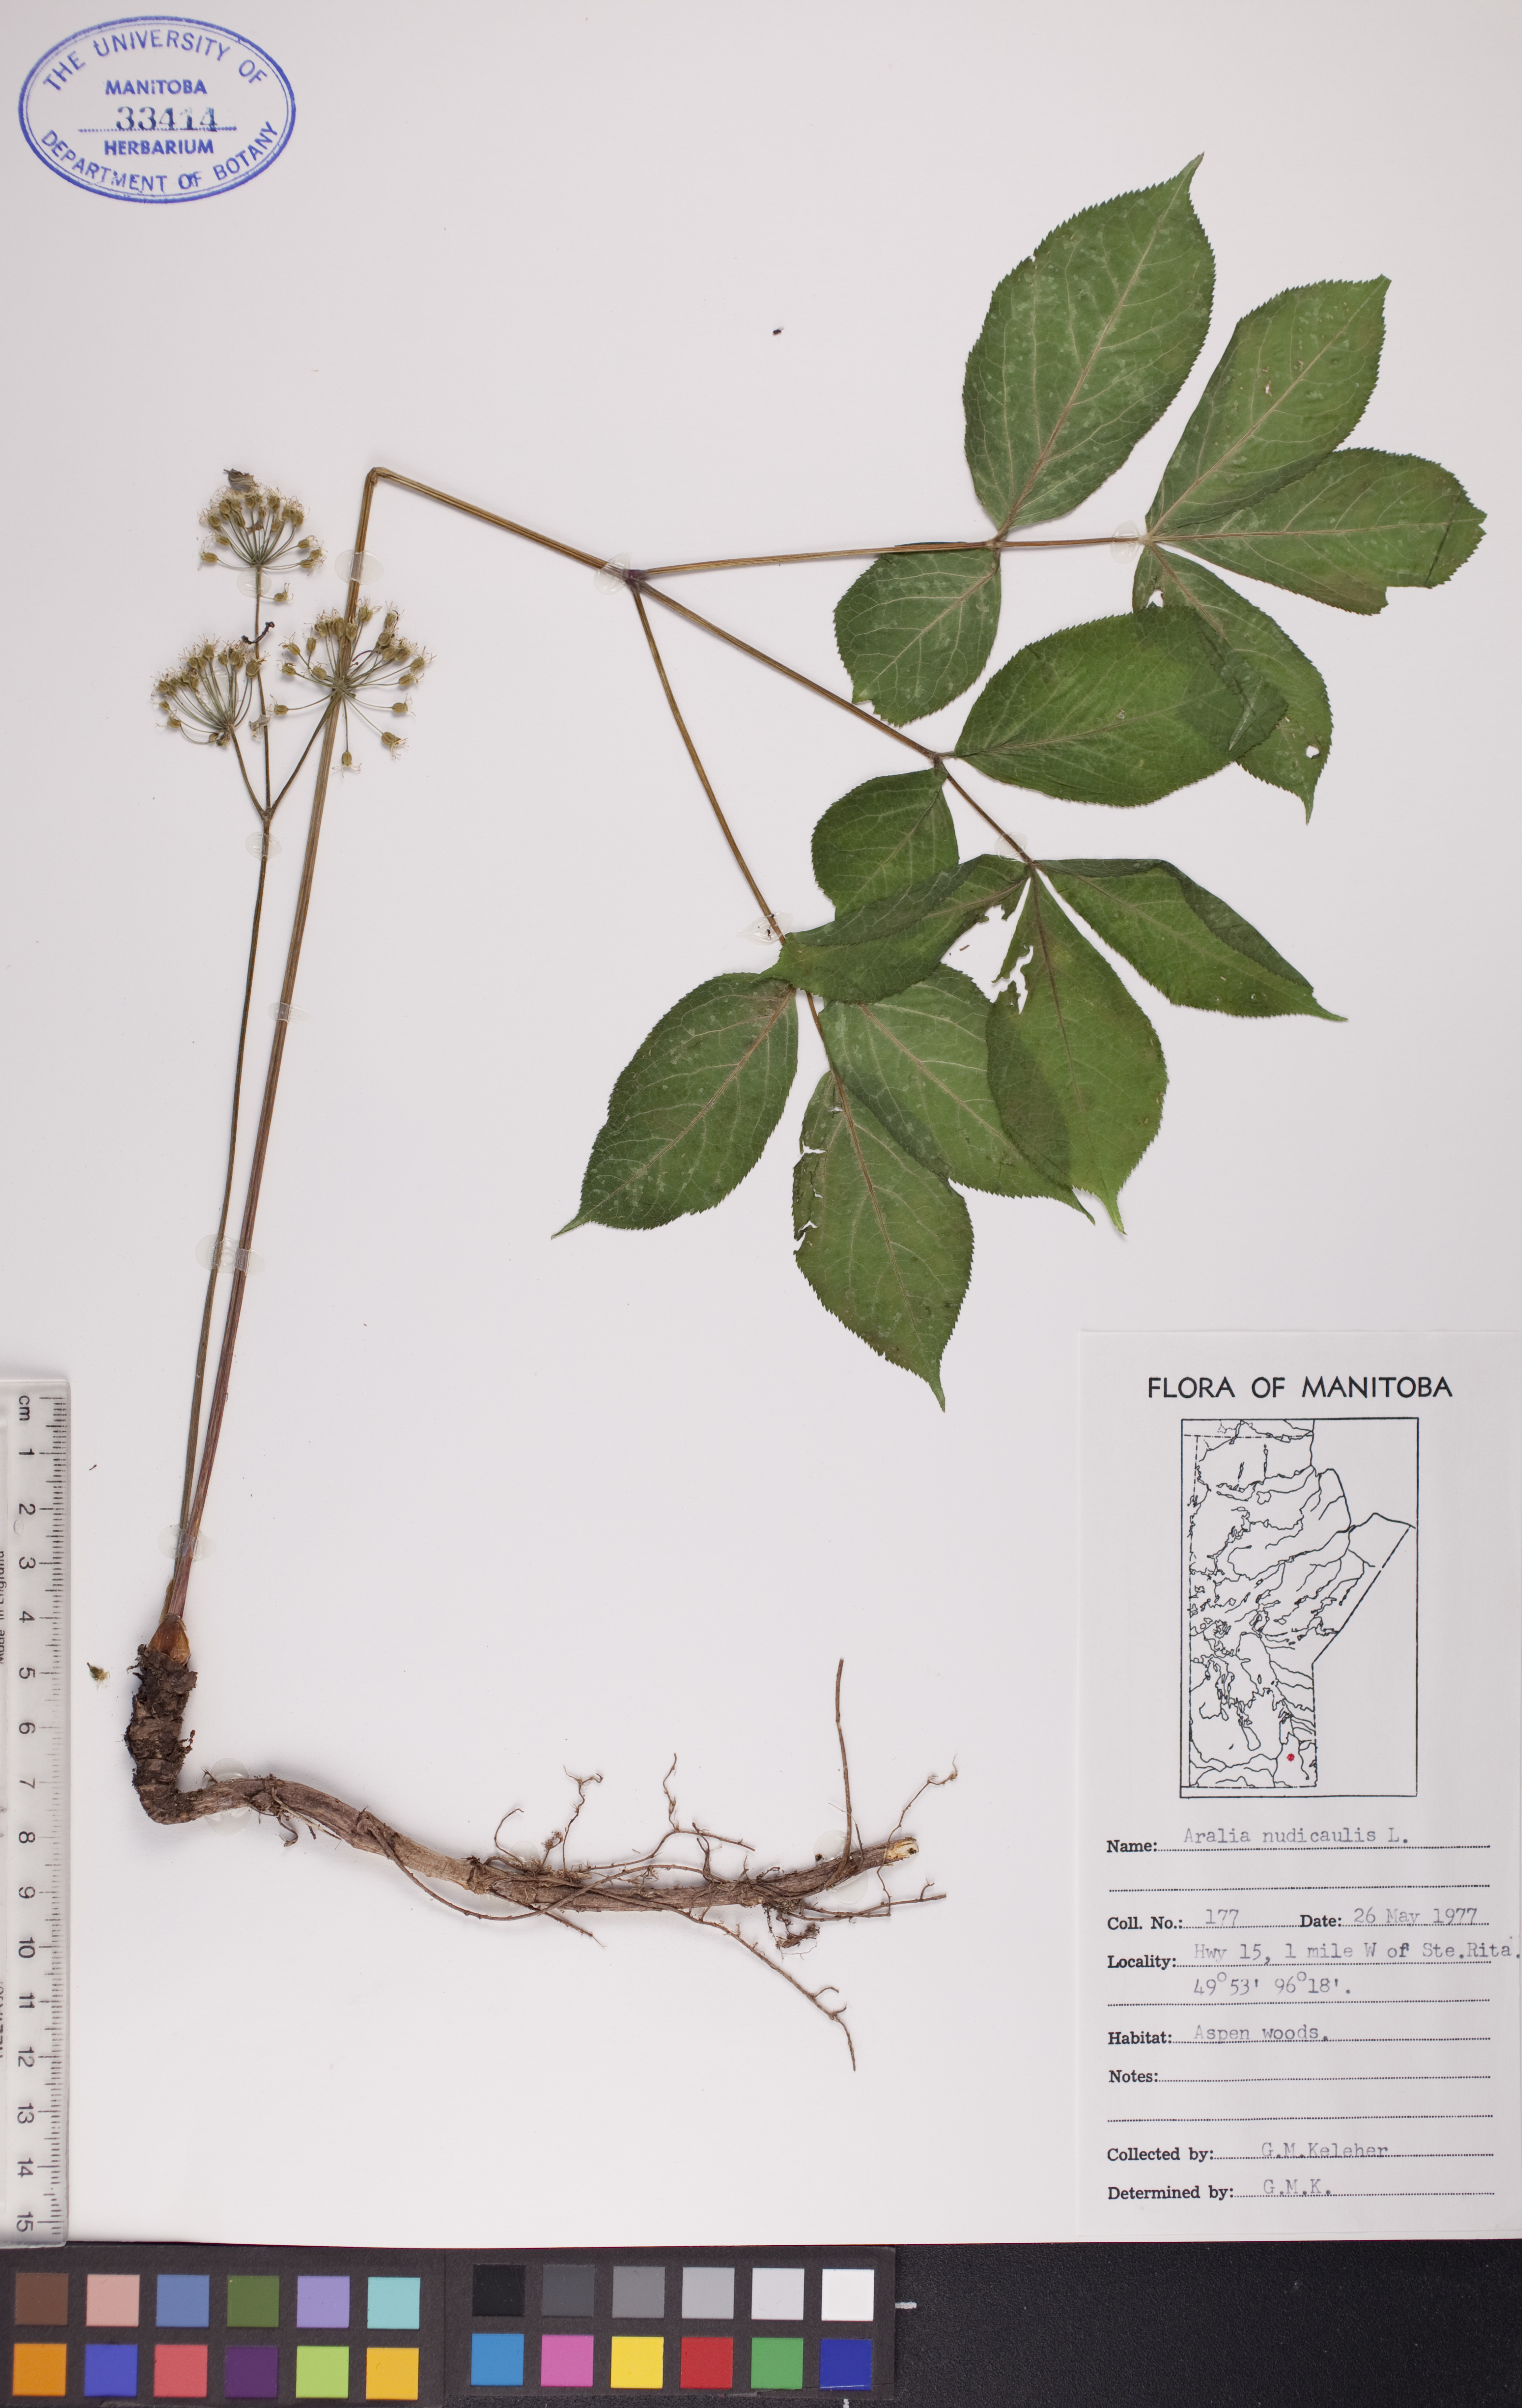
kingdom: Plantae
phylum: Tracheophyta
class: Magnoliopsida
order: Apiales
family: Araliaceae
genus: Aralia
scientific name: Aralia nudicaulis
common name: Wild sarsaparilla
